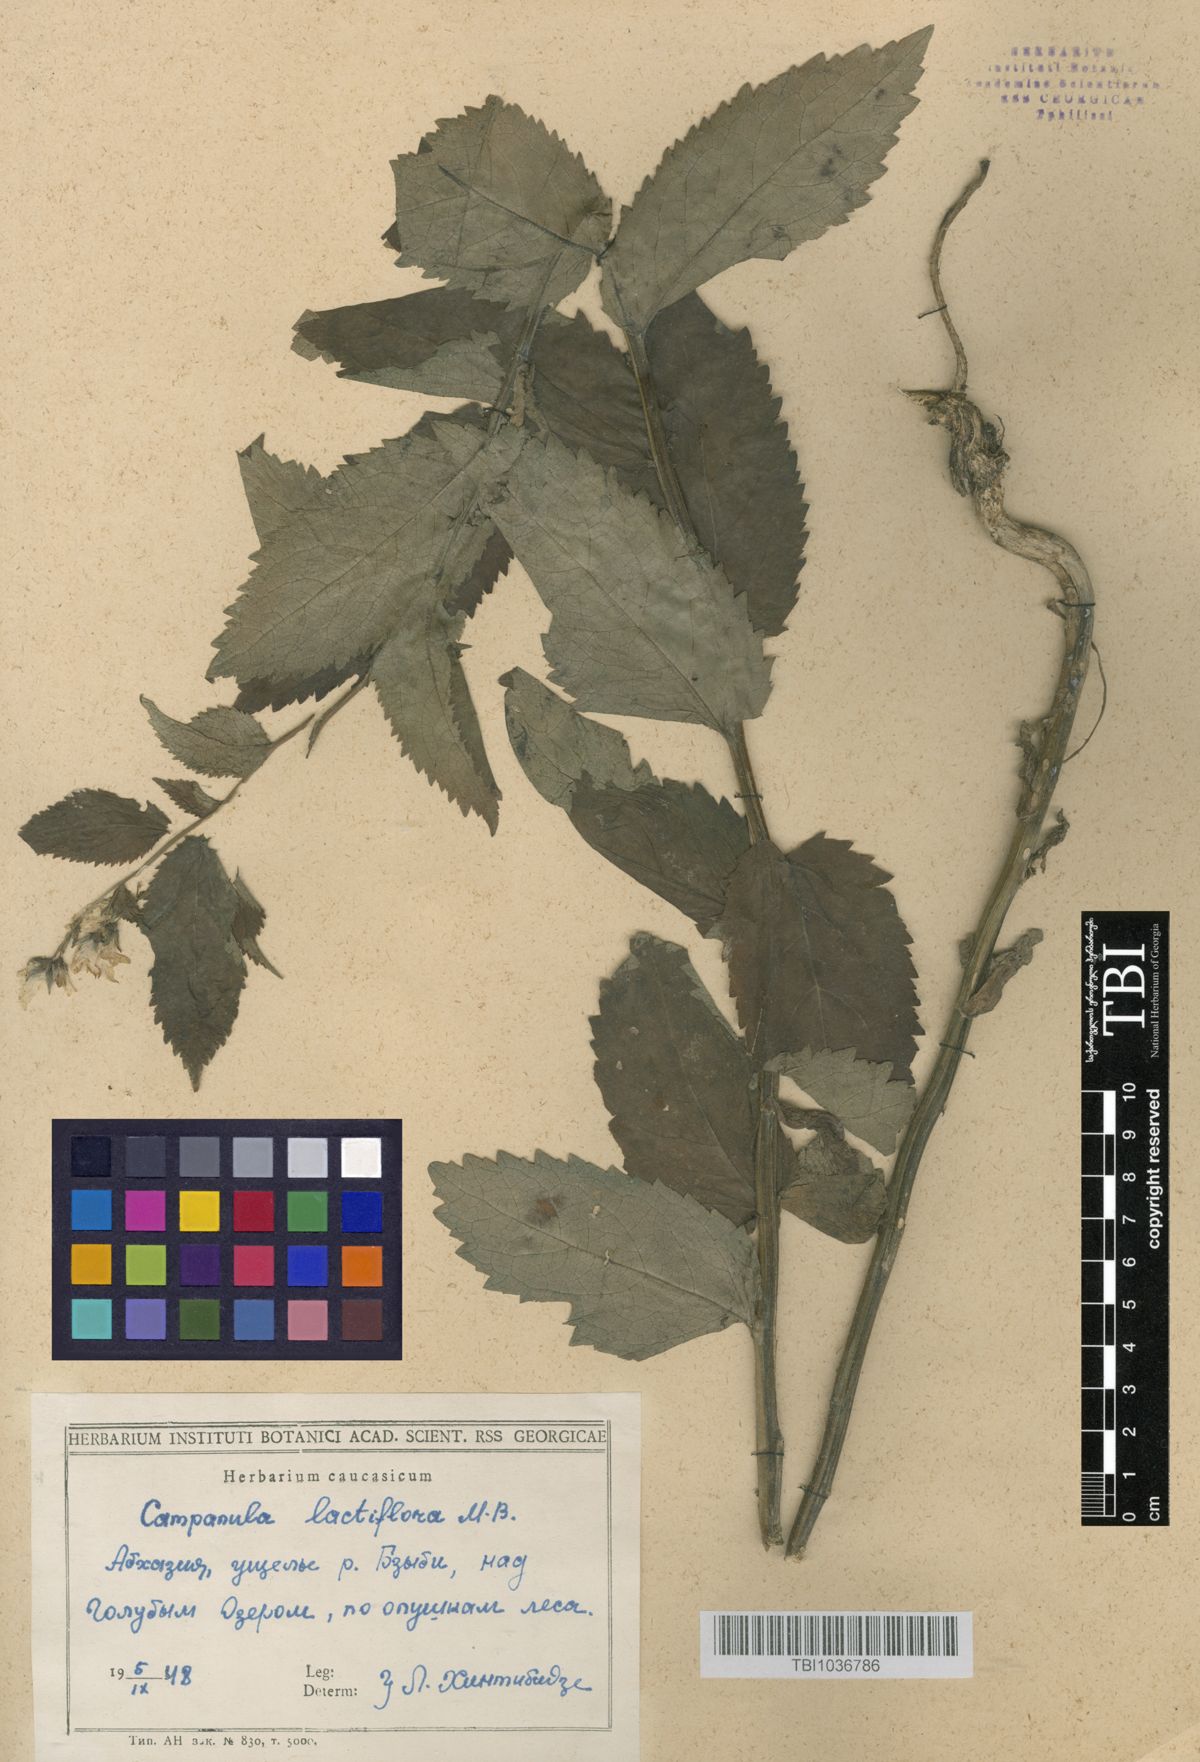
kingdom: Plantae
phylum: Tracheophyta
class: Magnoliopsida
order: Asterales
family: Campanulaceae
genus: Campanula
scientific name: Campanula lactiflora
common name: Milky bellflower
